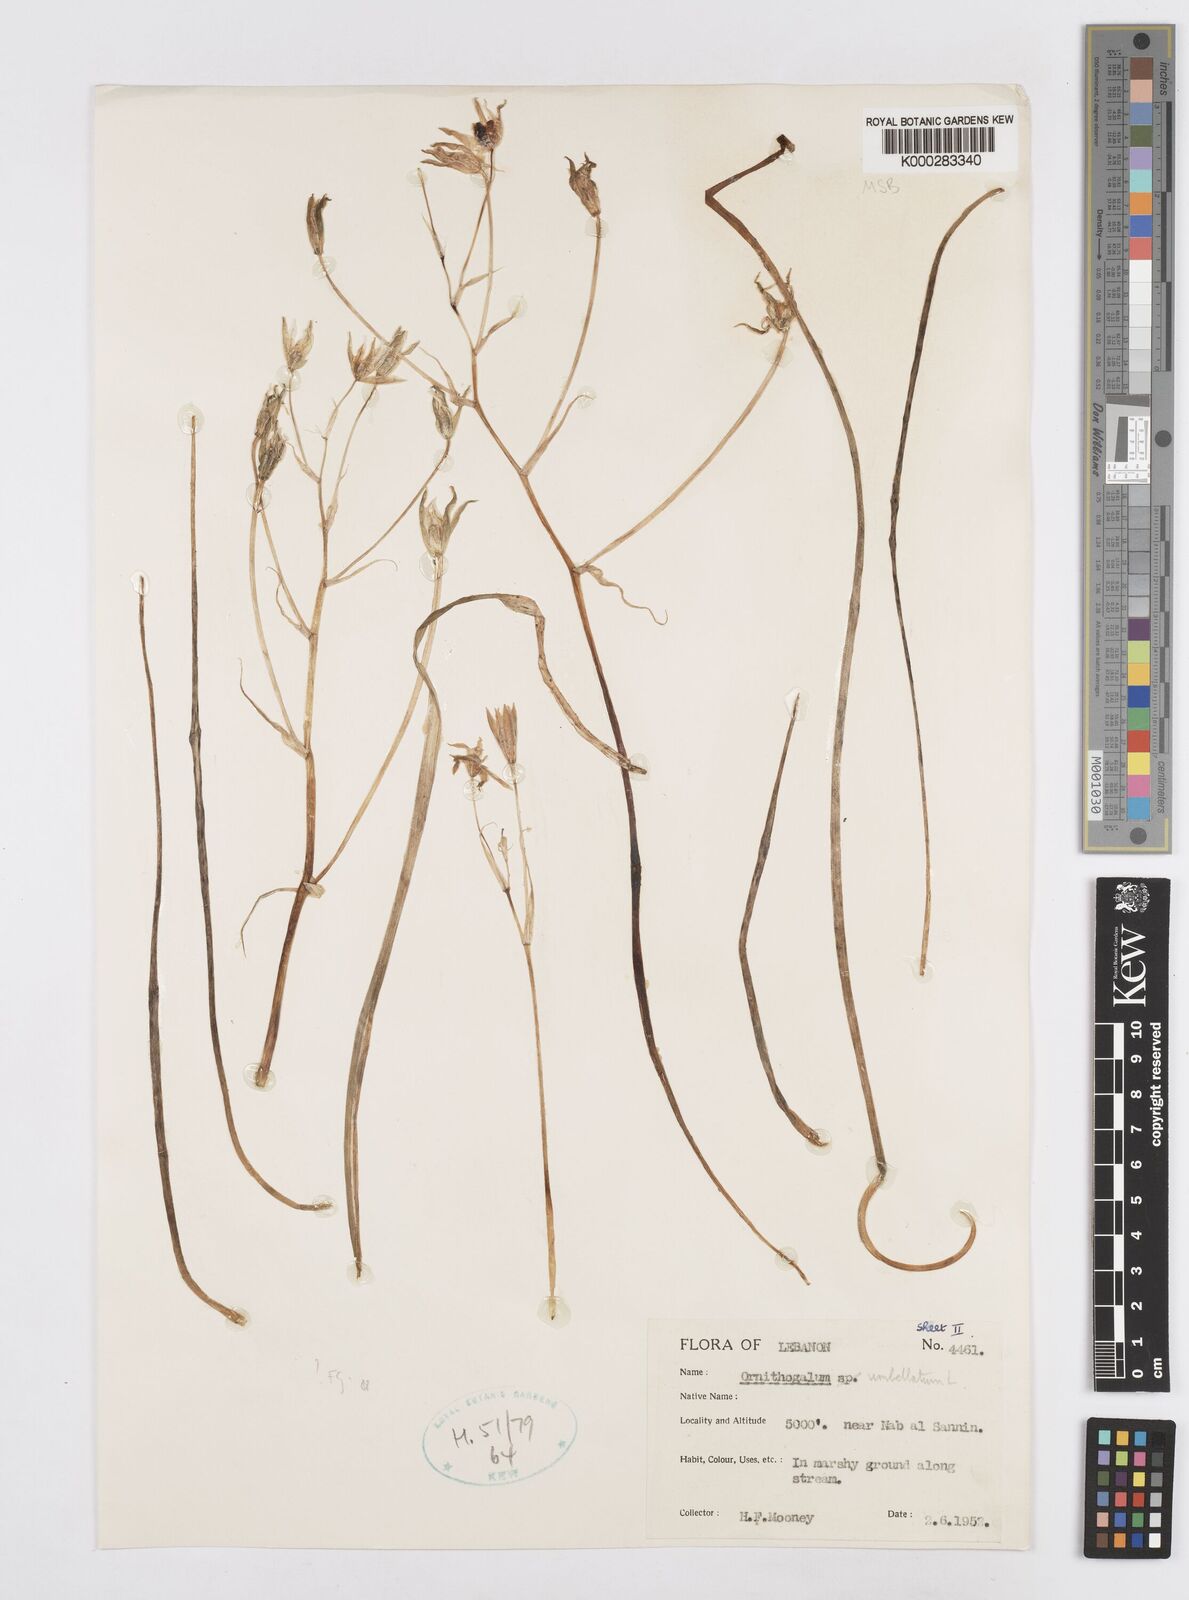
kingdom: Plantae
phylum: Tracheophyta
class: Liliopsida
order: Asparagales
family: Asparagaceae
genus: Ornithogalum
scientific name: Ornithogalum umbellatum
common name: Garden star-of-bethlehem
